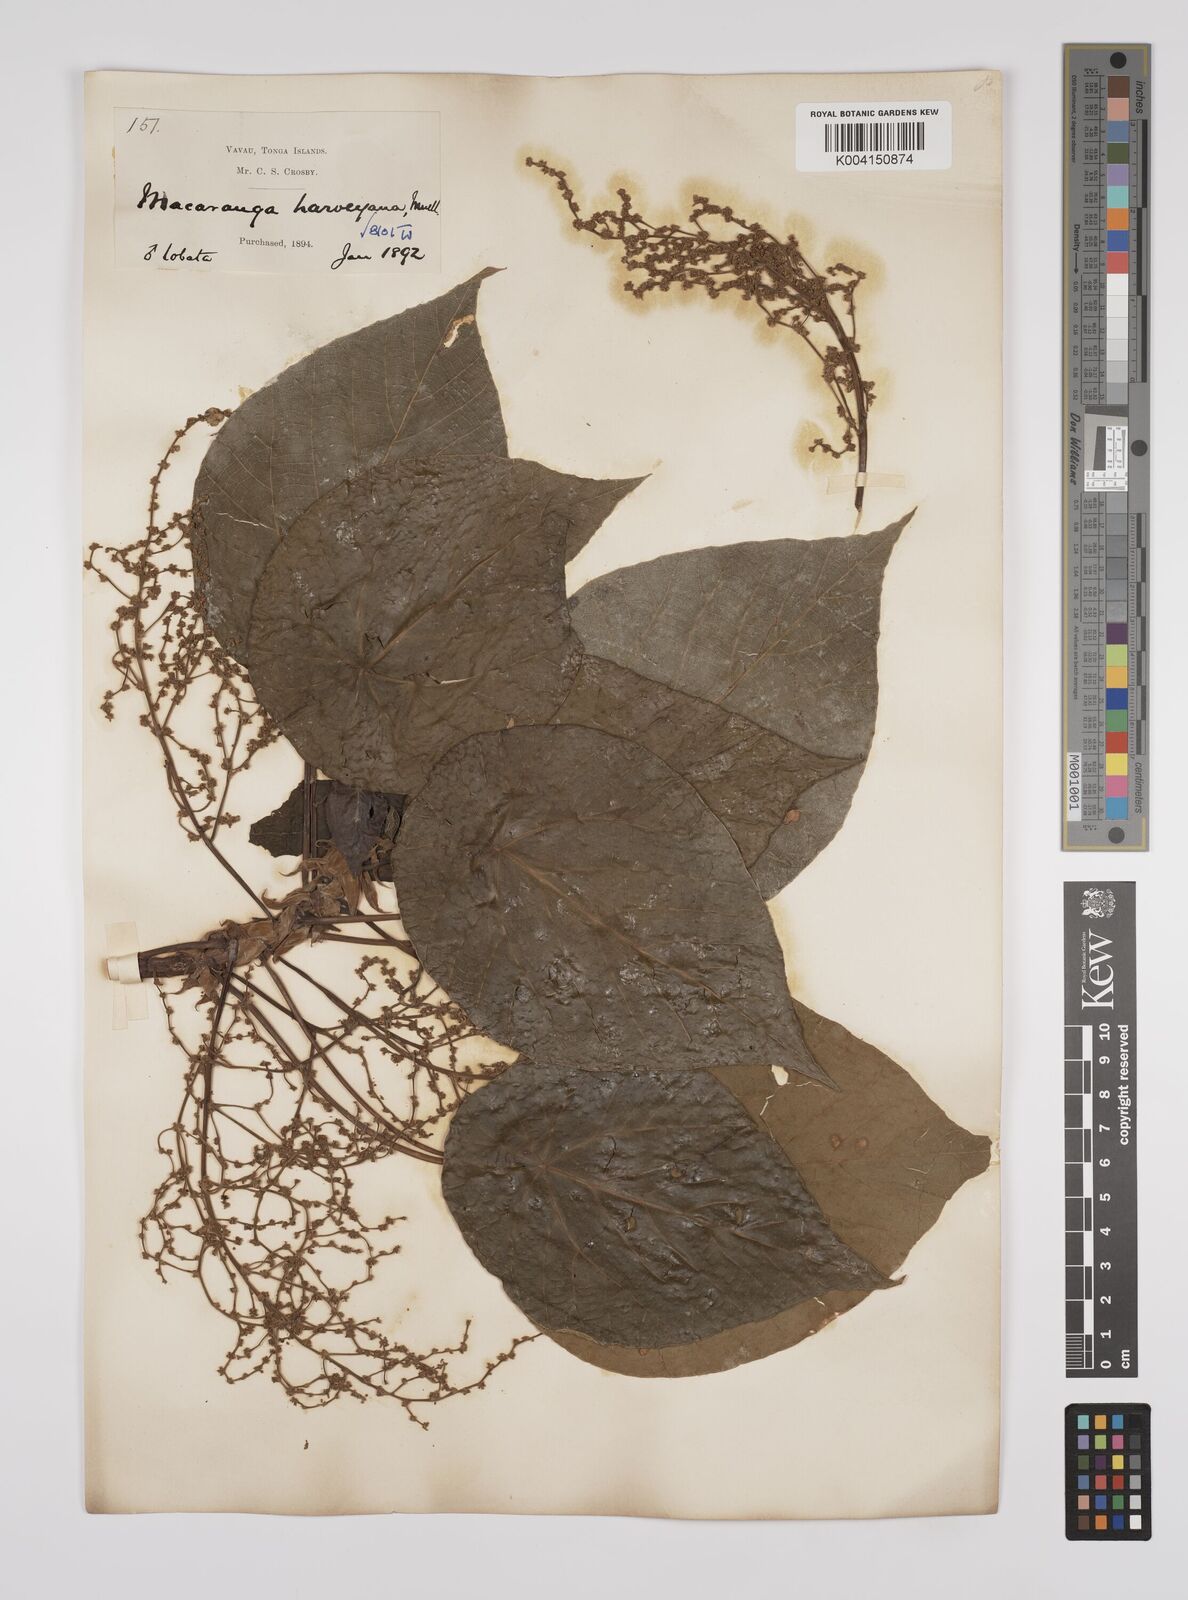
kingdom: Plantae
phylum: Tracheophyta
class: Magnoliopsida
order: Malpighiales
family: Euphorbiaceae
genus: Macaranga
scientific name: Macaranga harveyana
